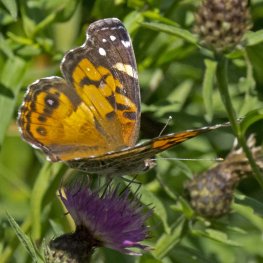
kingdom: Animalia
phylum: Arthropoda
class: Insecta
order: Lepidoptera
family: Nymphalidae
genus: Vanessa
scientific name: Vanessa virginiensis
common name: American Lady
